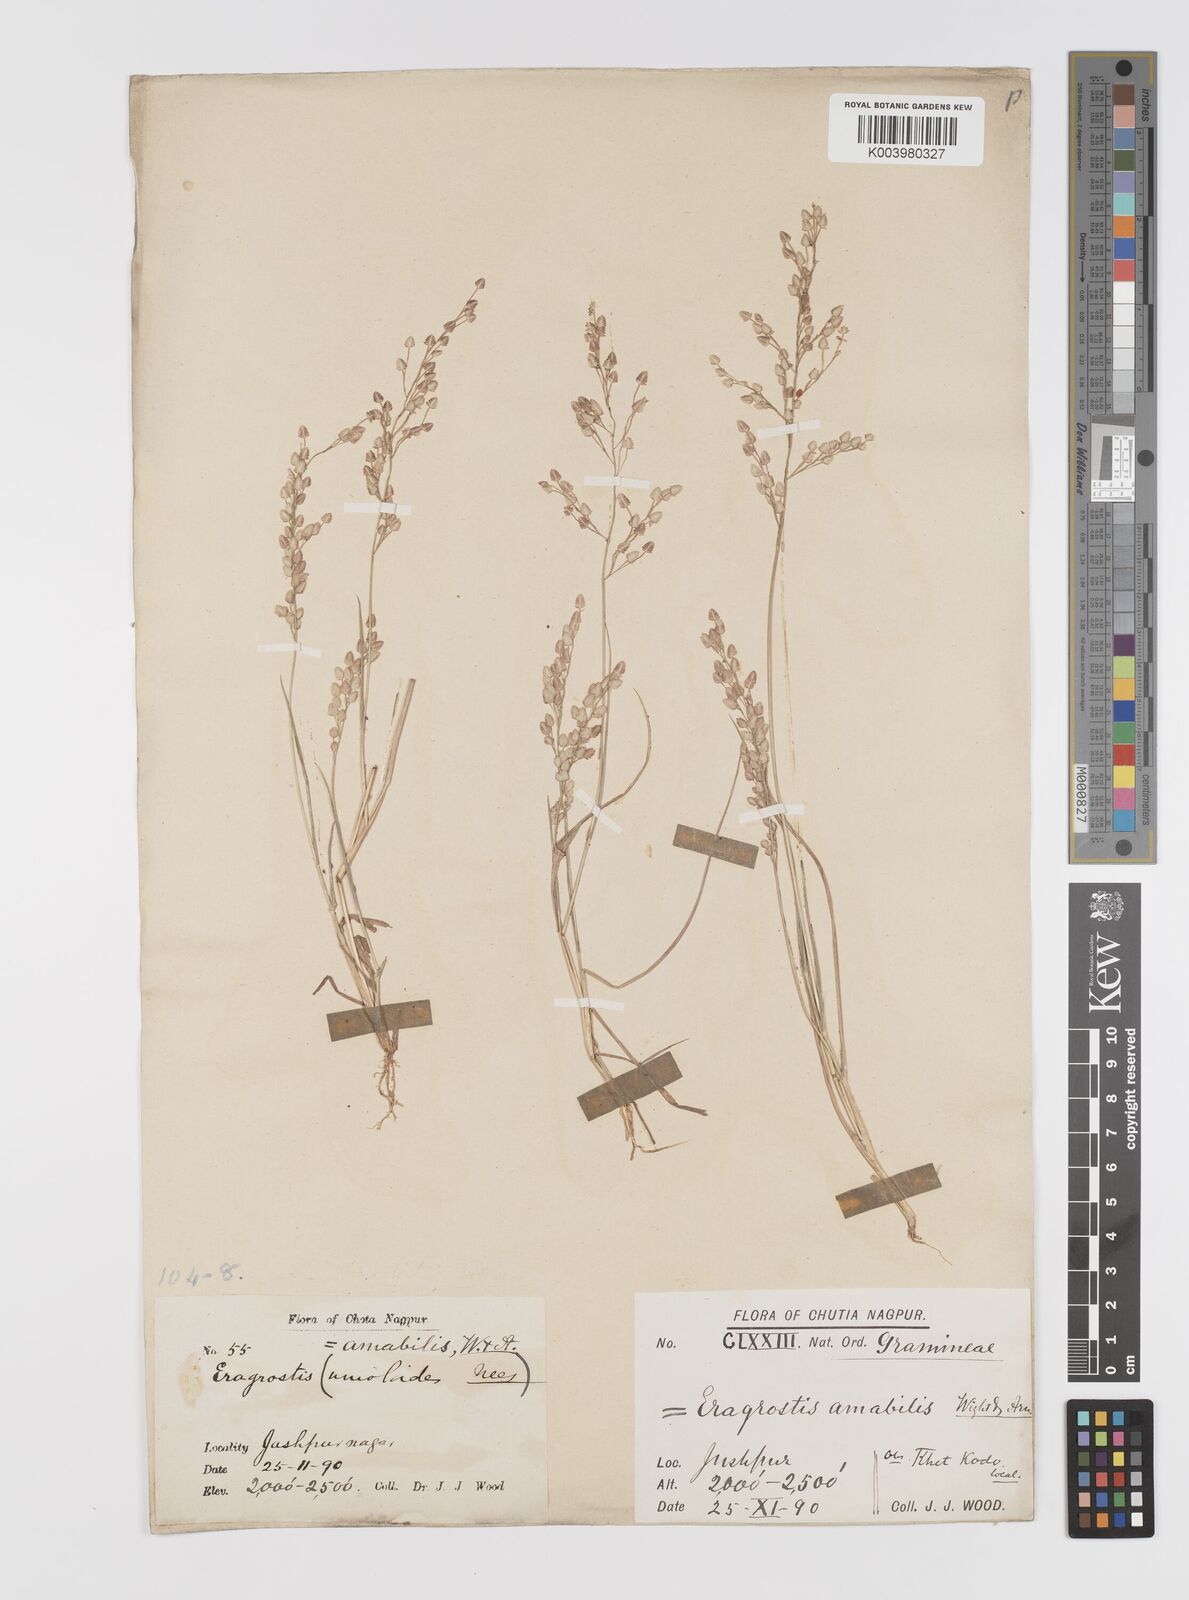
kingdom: Plantae
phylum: Tracheophyta
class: Liliopsida
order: Poales
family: Poaceae
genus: Eragrostis
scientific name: Eragrostis unioloides
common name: Chinese lovegrass
